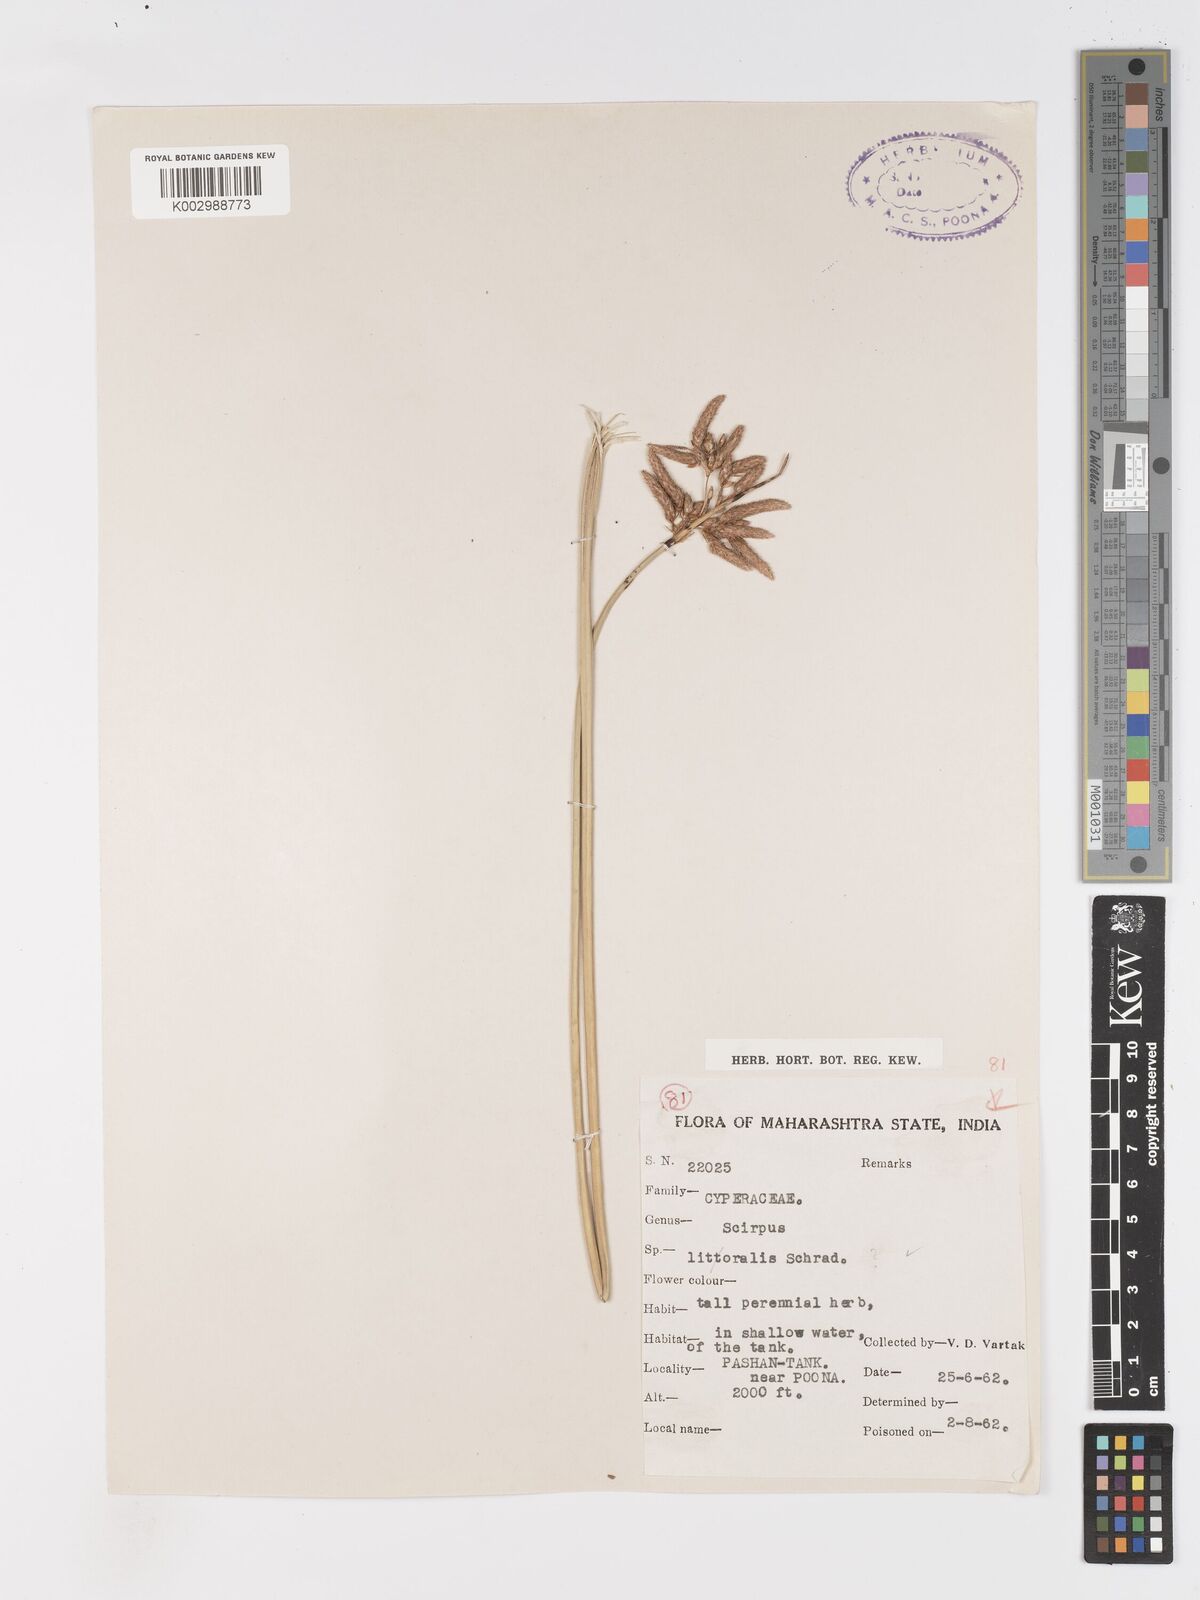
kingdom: Plantae
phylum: Tracheophyta
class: Liliopsida
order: Poales
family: Cyperaceae
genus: Schoenoplectus
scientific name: Schoenoplectus litoralis
